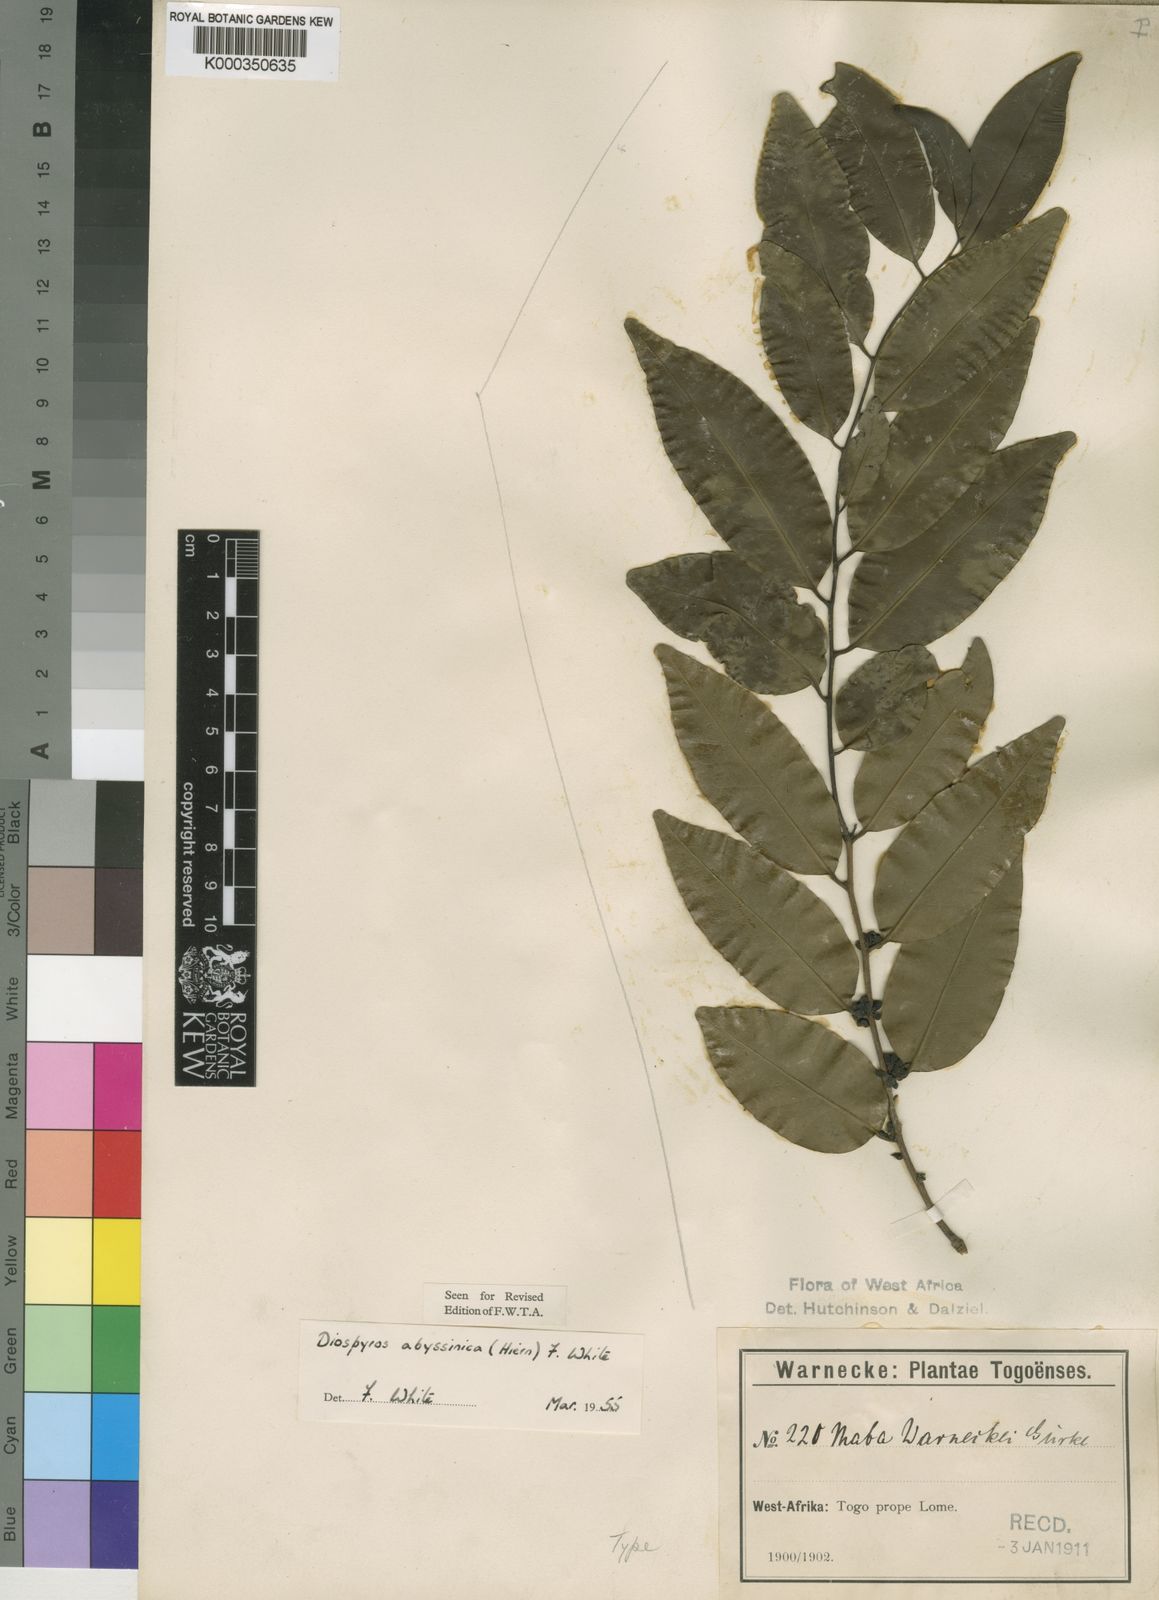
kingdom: Plantae
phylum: Tracheophyta
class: Magnoliopsida
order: Ericales
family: Ebenaceae
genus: Diospyros
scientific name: Diospyros abyssinica
